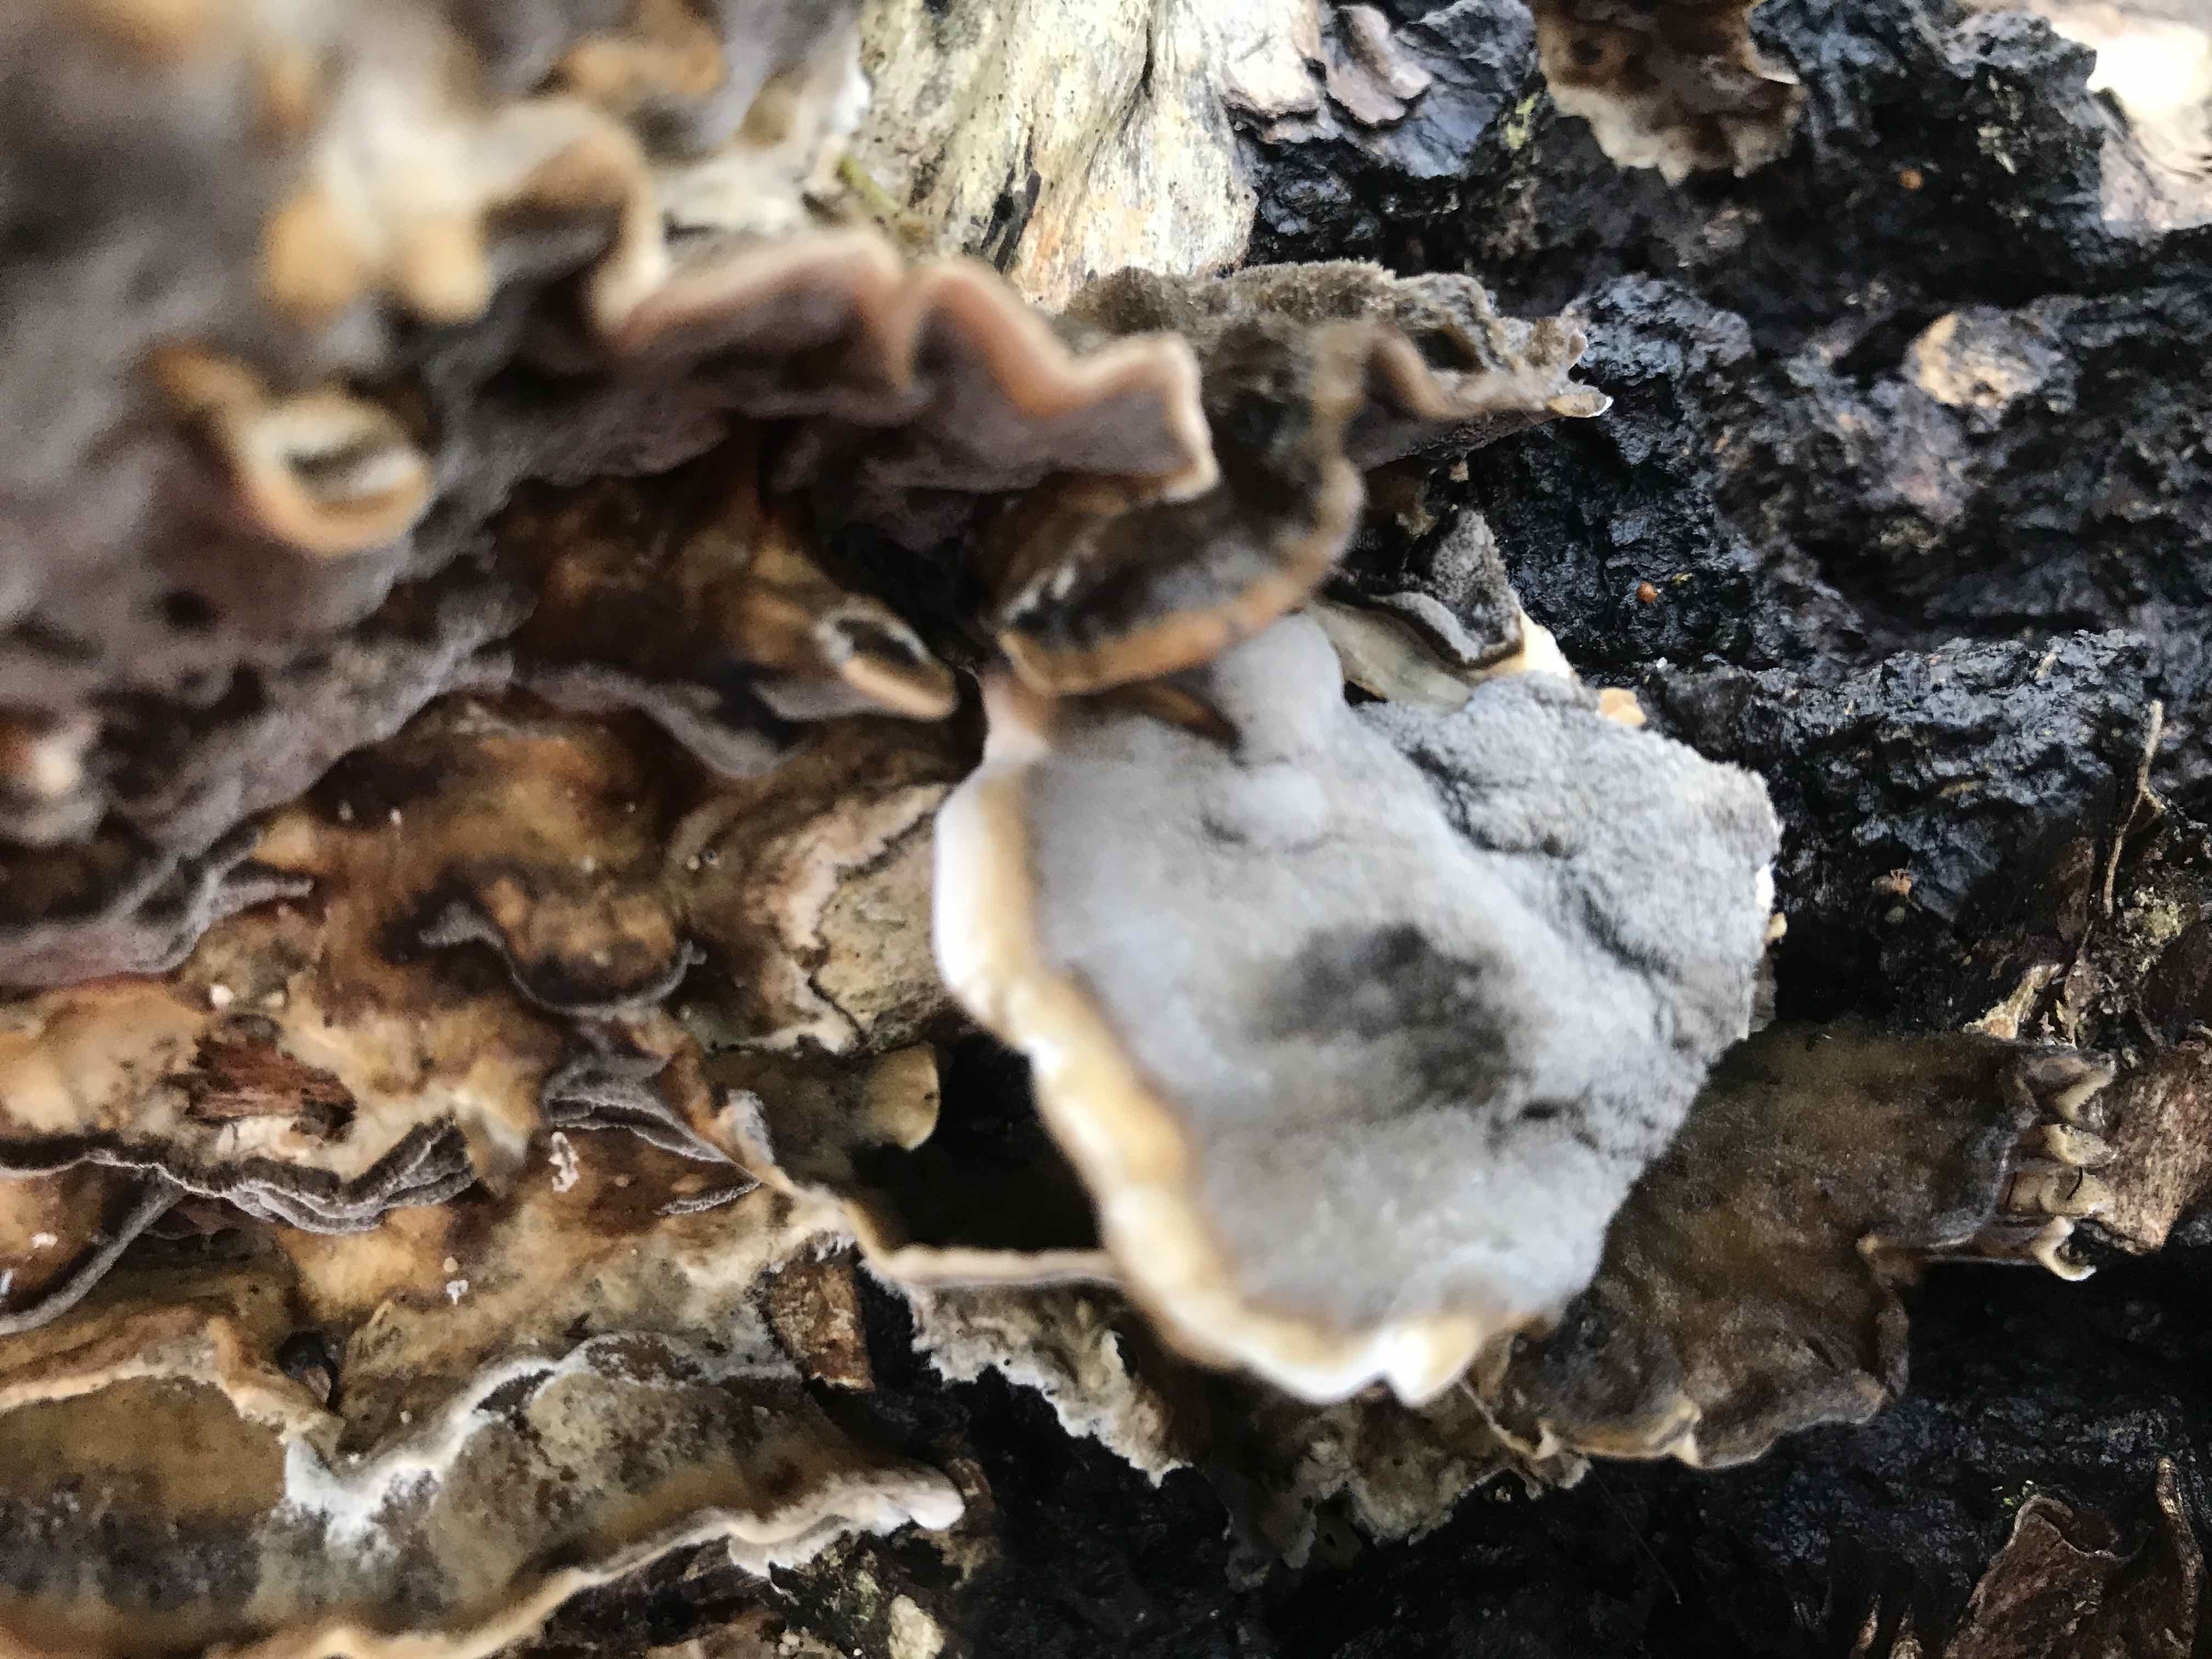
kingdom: Fungi
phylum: Basidiomycota
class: Agaricomycetes
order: Polyporales
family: Phanerochaetaceae
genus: Bjerkandera
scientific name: Bjerkandera adusta
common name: sveden sodporesvamp
